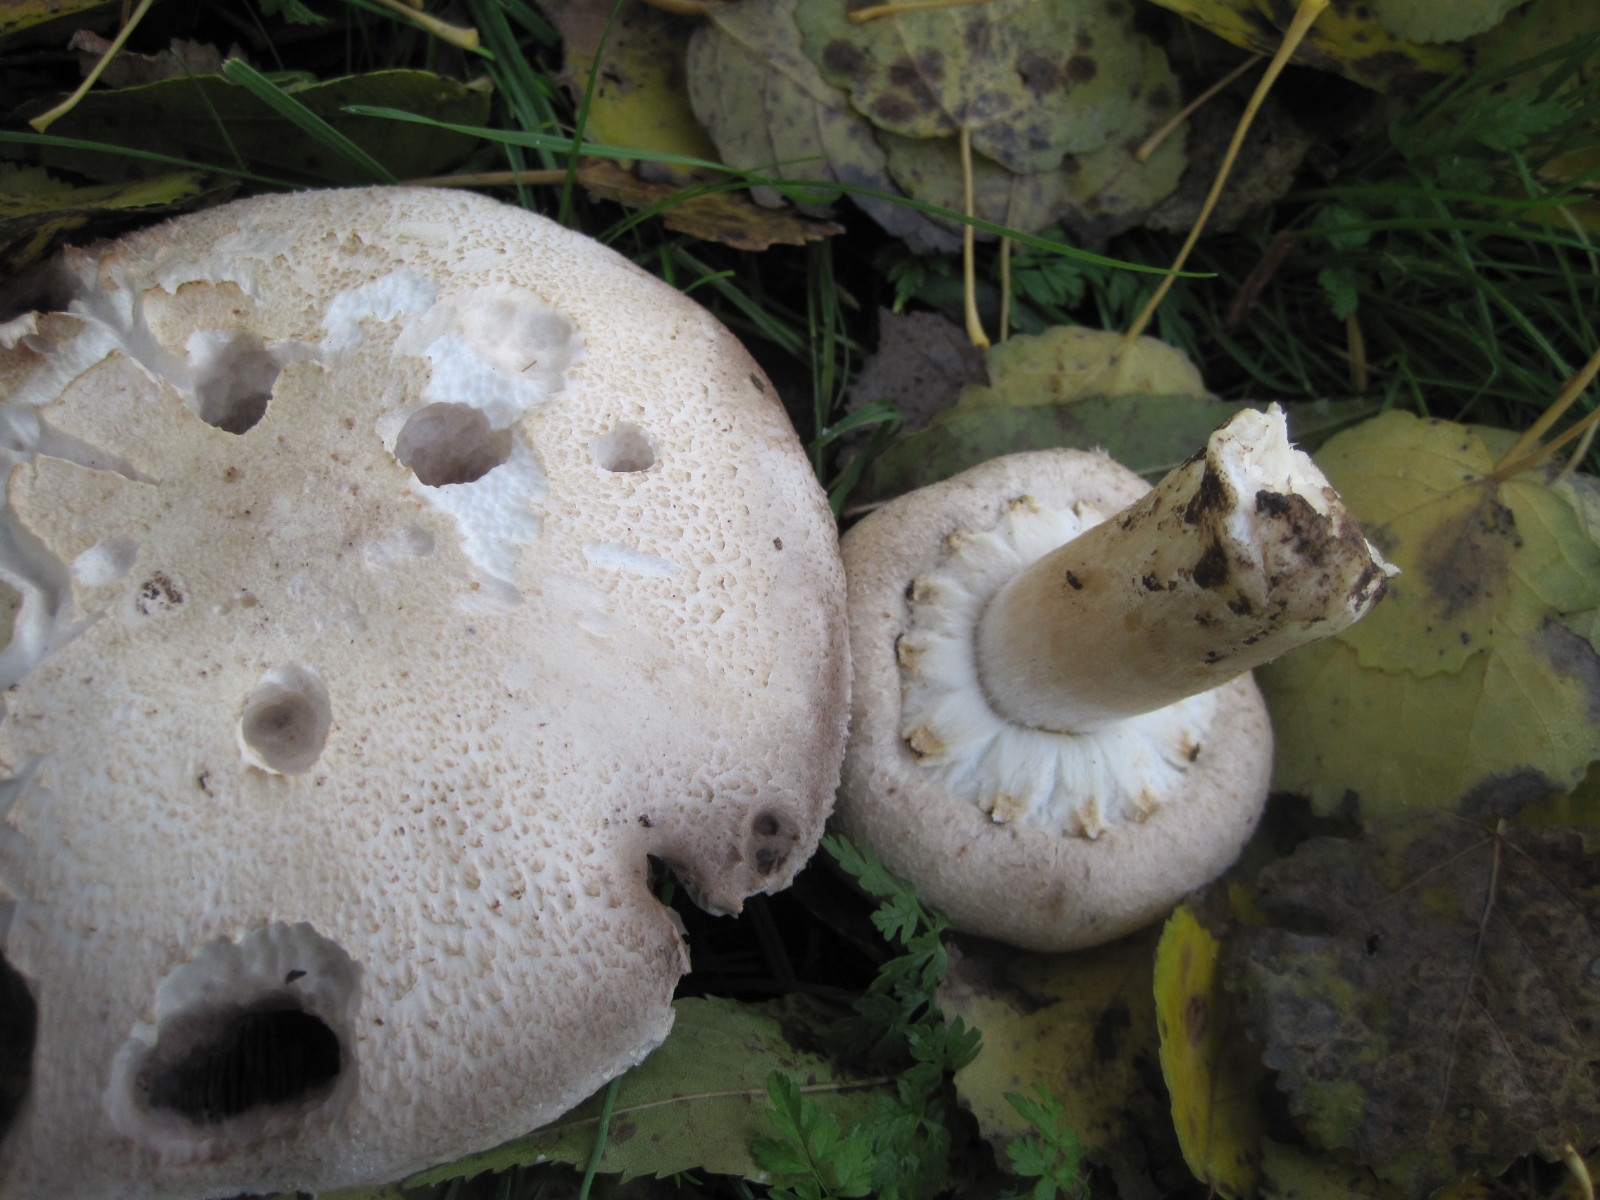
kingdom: Fungi
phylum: Basidiomycota
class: Agaricomycetes
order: Agaricales
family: Agaricaceae
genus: Agaricus
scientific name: Agaricus arvensis
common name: ager-champignon
